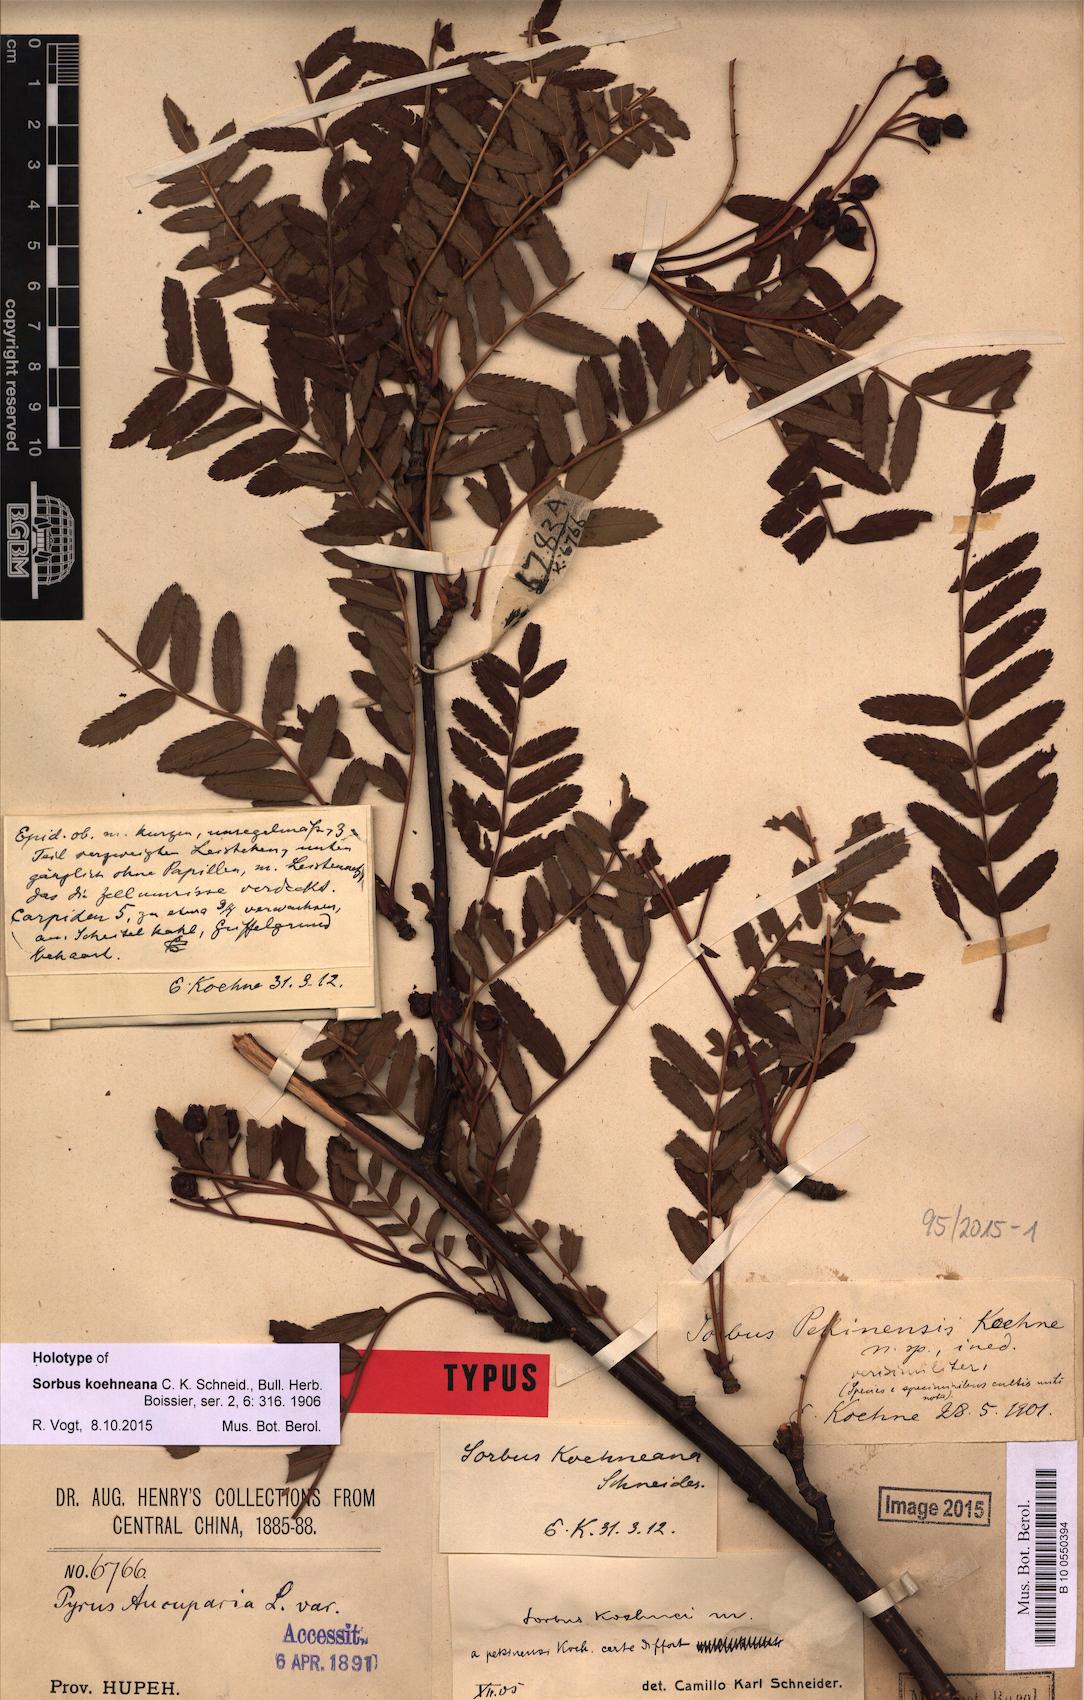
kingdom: Plantae
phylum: Tracheophyta
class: Magnoliopsida
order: Rosales
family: Rosaceae
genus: Sorbus
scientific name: Sorbus koehneana
